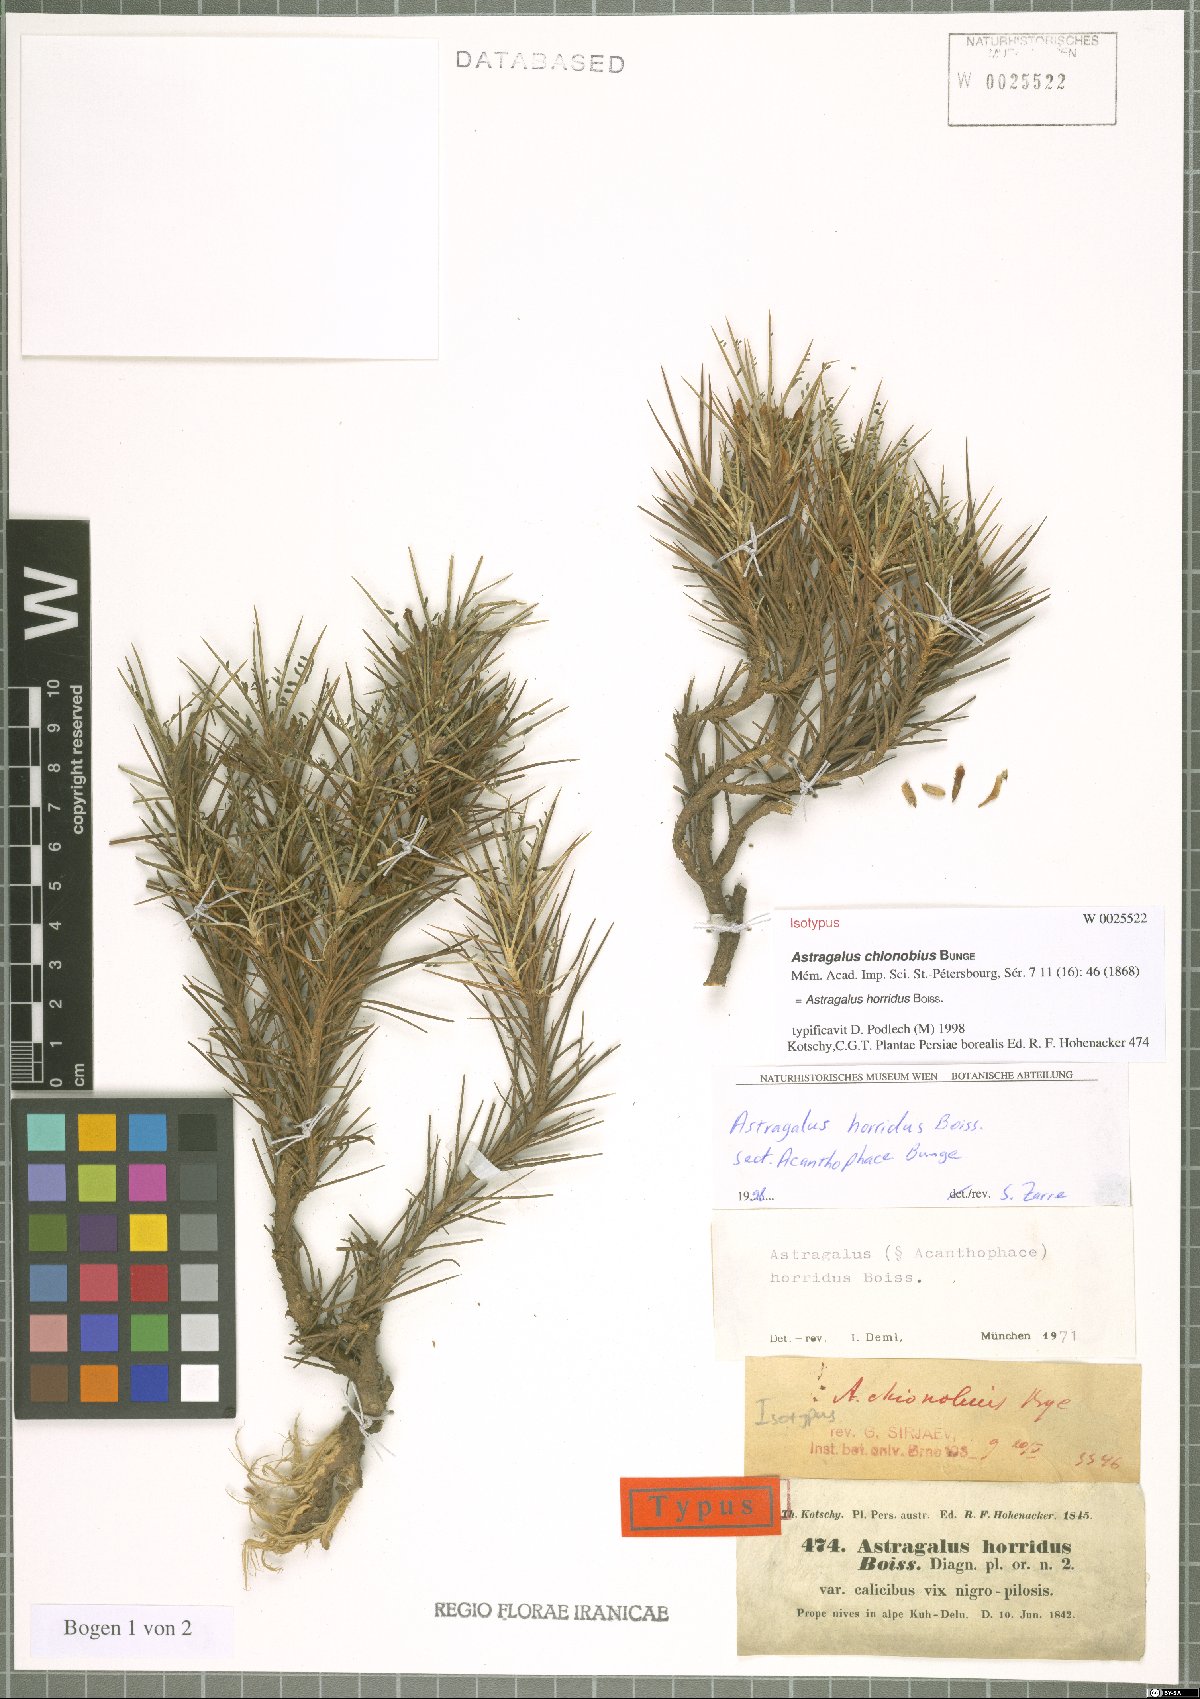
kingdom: Plantae
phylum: Tracheophyta
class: Magnoliopsida
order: Fabales
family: Fabaceae
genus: Astragalus
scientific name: Astragalus horridus
